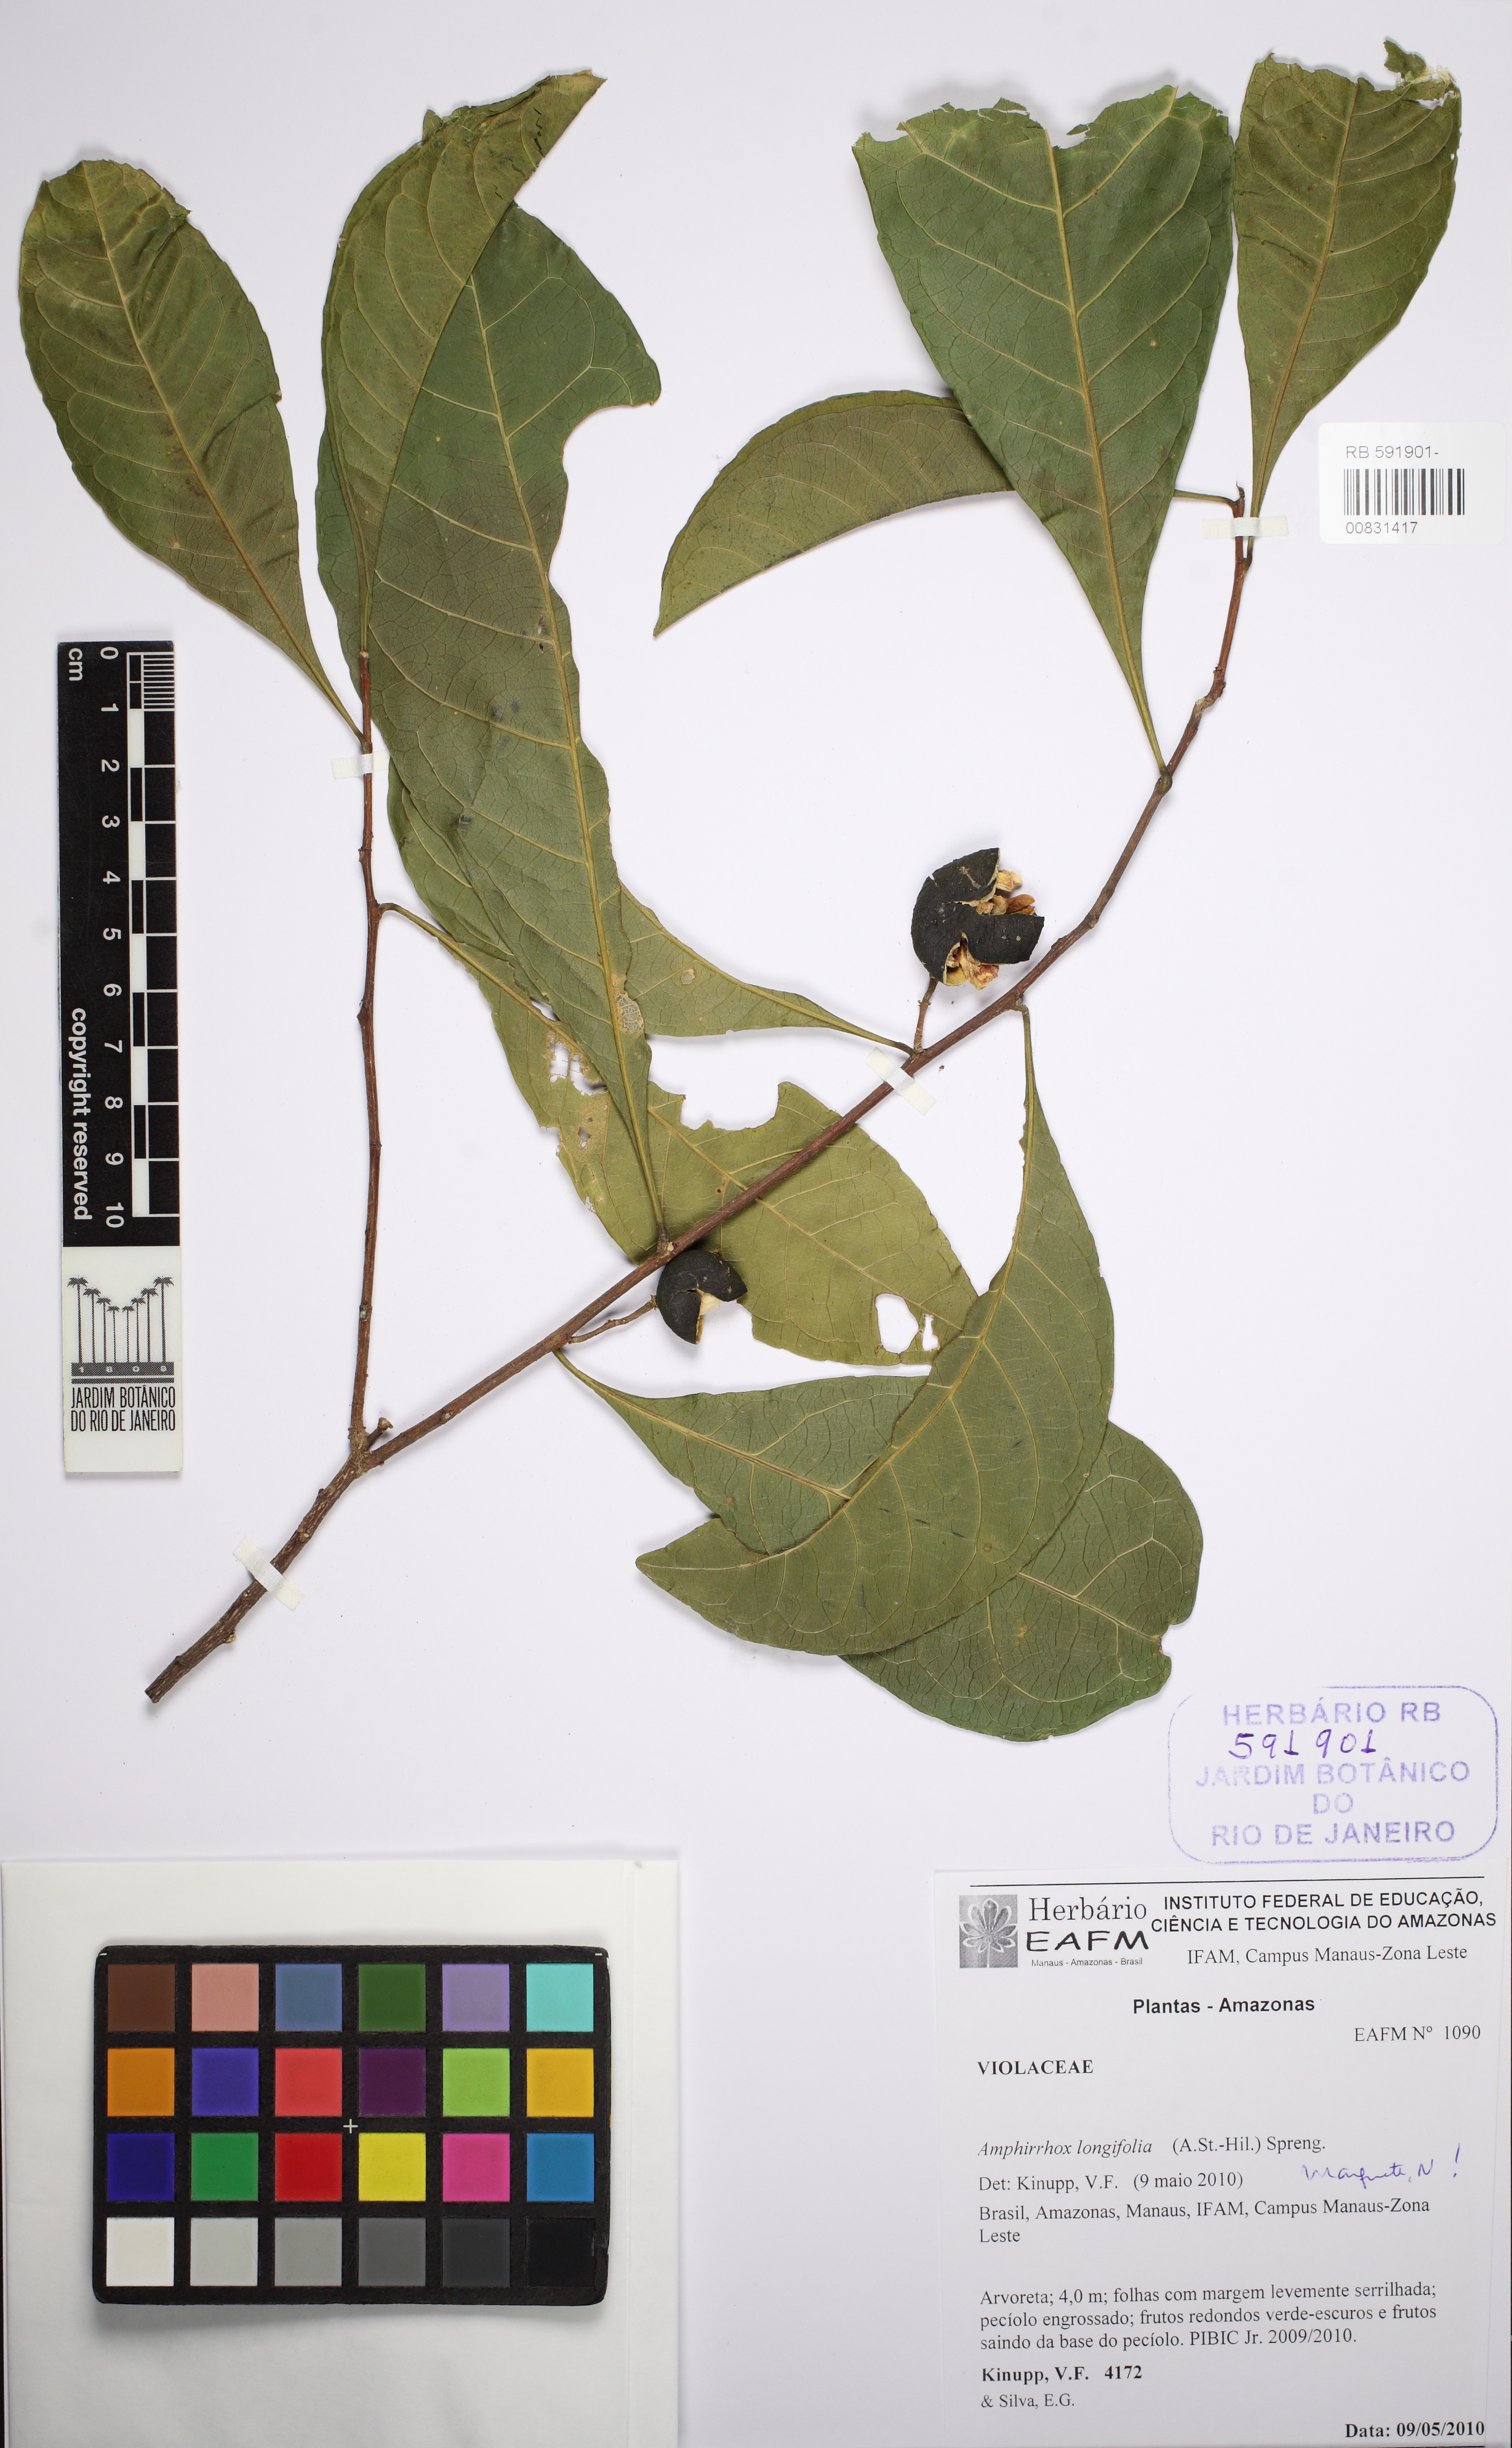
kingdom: Plantae
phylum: Tracheophyta
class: Magnoliopsida
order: Malpighiales
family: Violaceae
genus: Amphirrhox
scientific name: Amphirrhox longifolia
